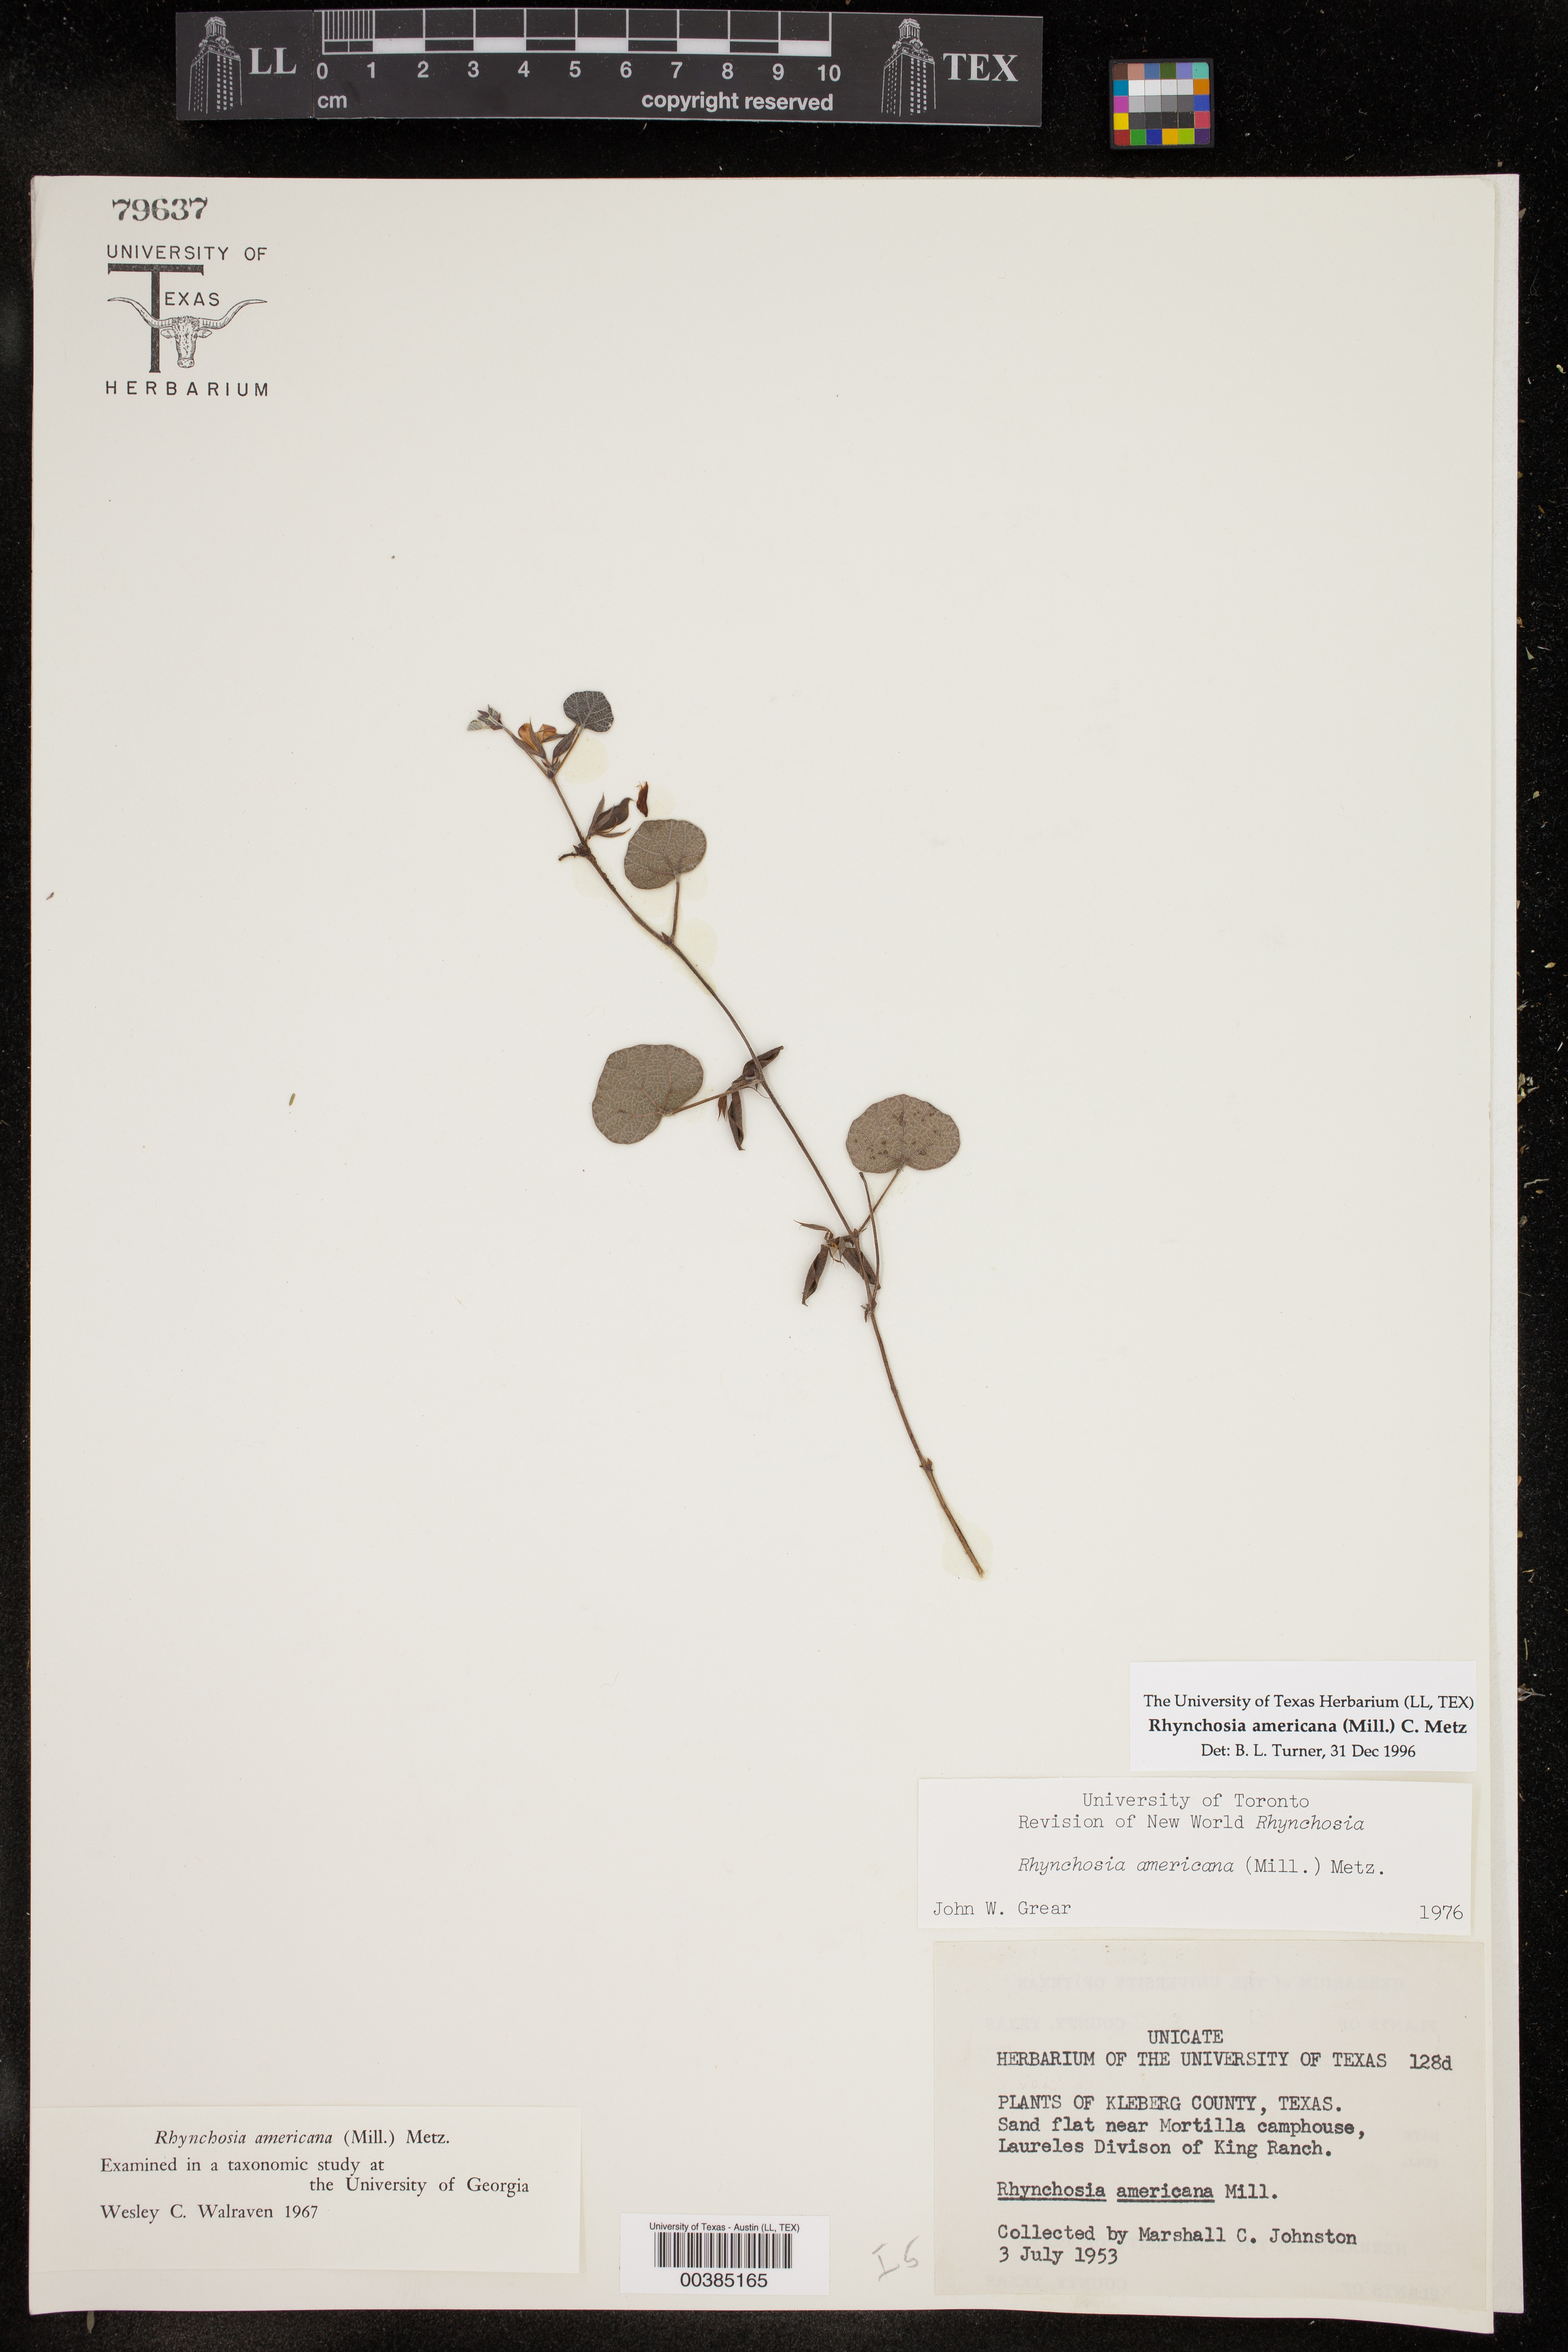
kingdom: Plantae
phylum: Tracheophyta
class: Magnoliopsida
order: Fabales
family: Fabaceae
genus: Rhynchosia
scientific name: Rhynchosia americana
